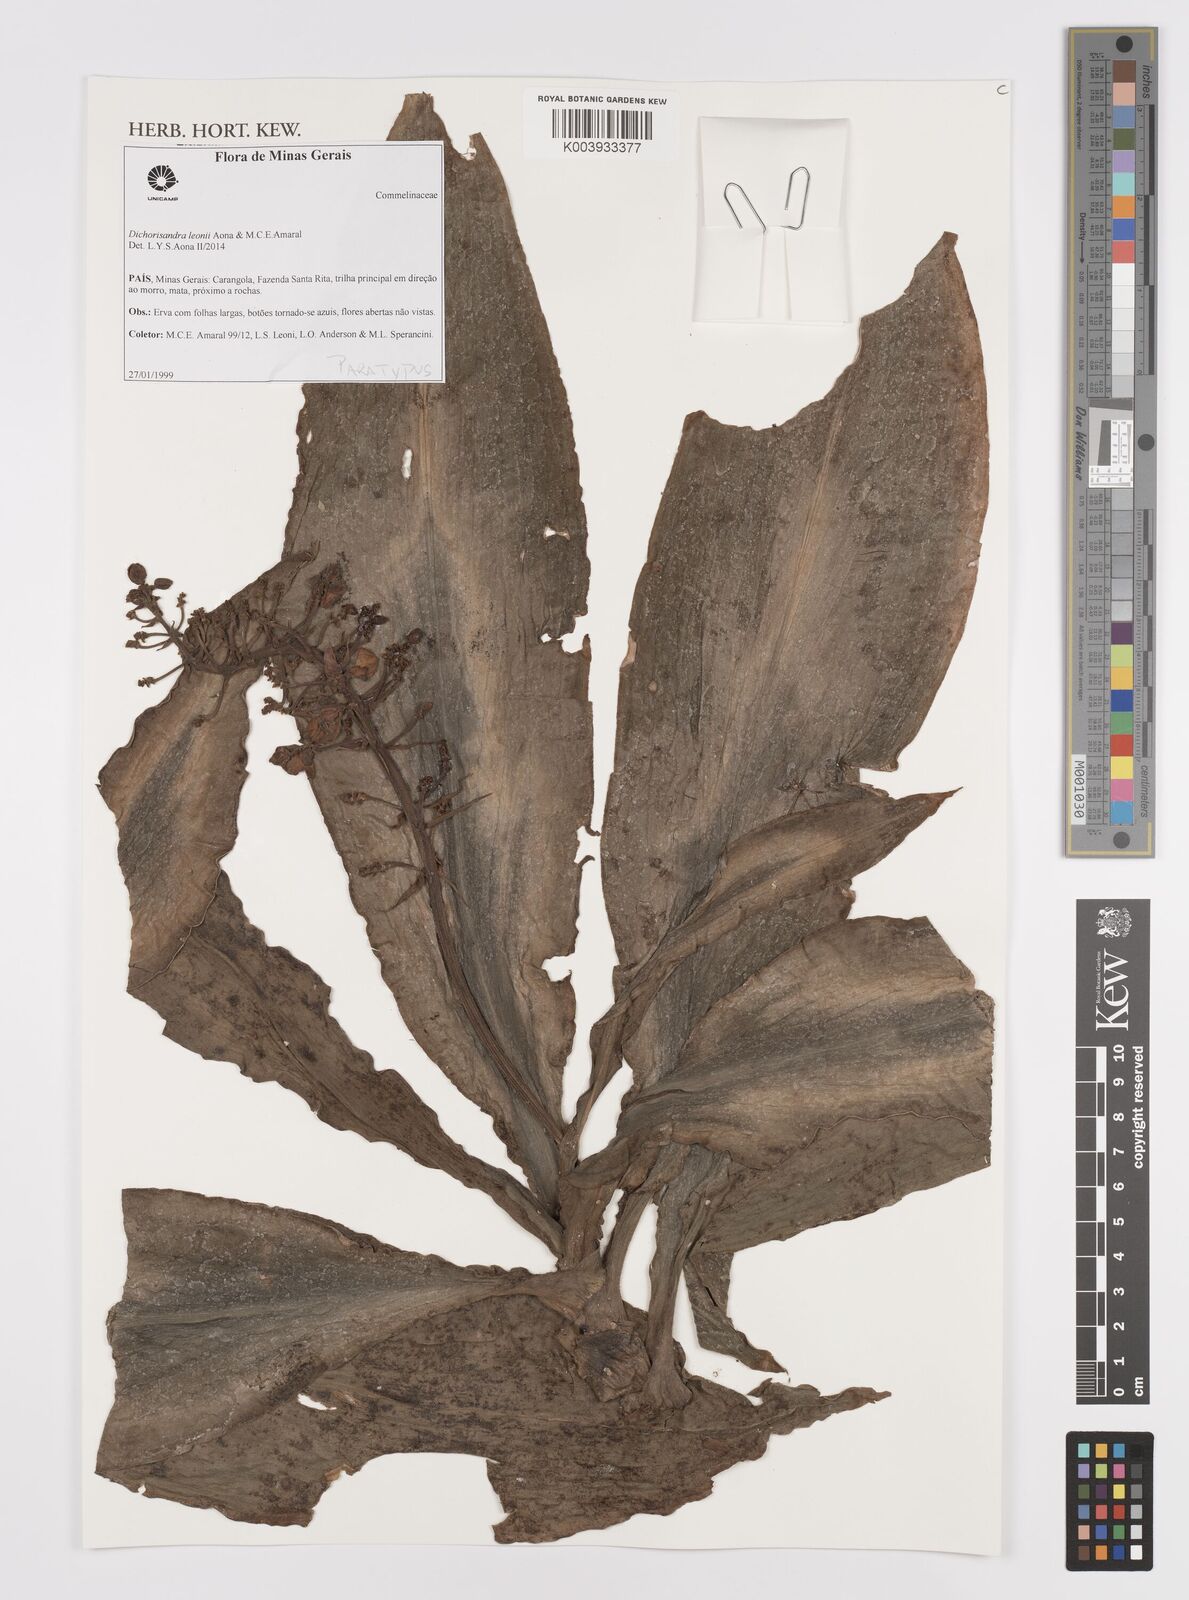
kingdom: Plantae
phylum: Tracheophyta
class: Liliopsida
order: Commelinales
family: Commelinaceae
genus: Dichorisandra
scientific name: Dichorisandra leonii
